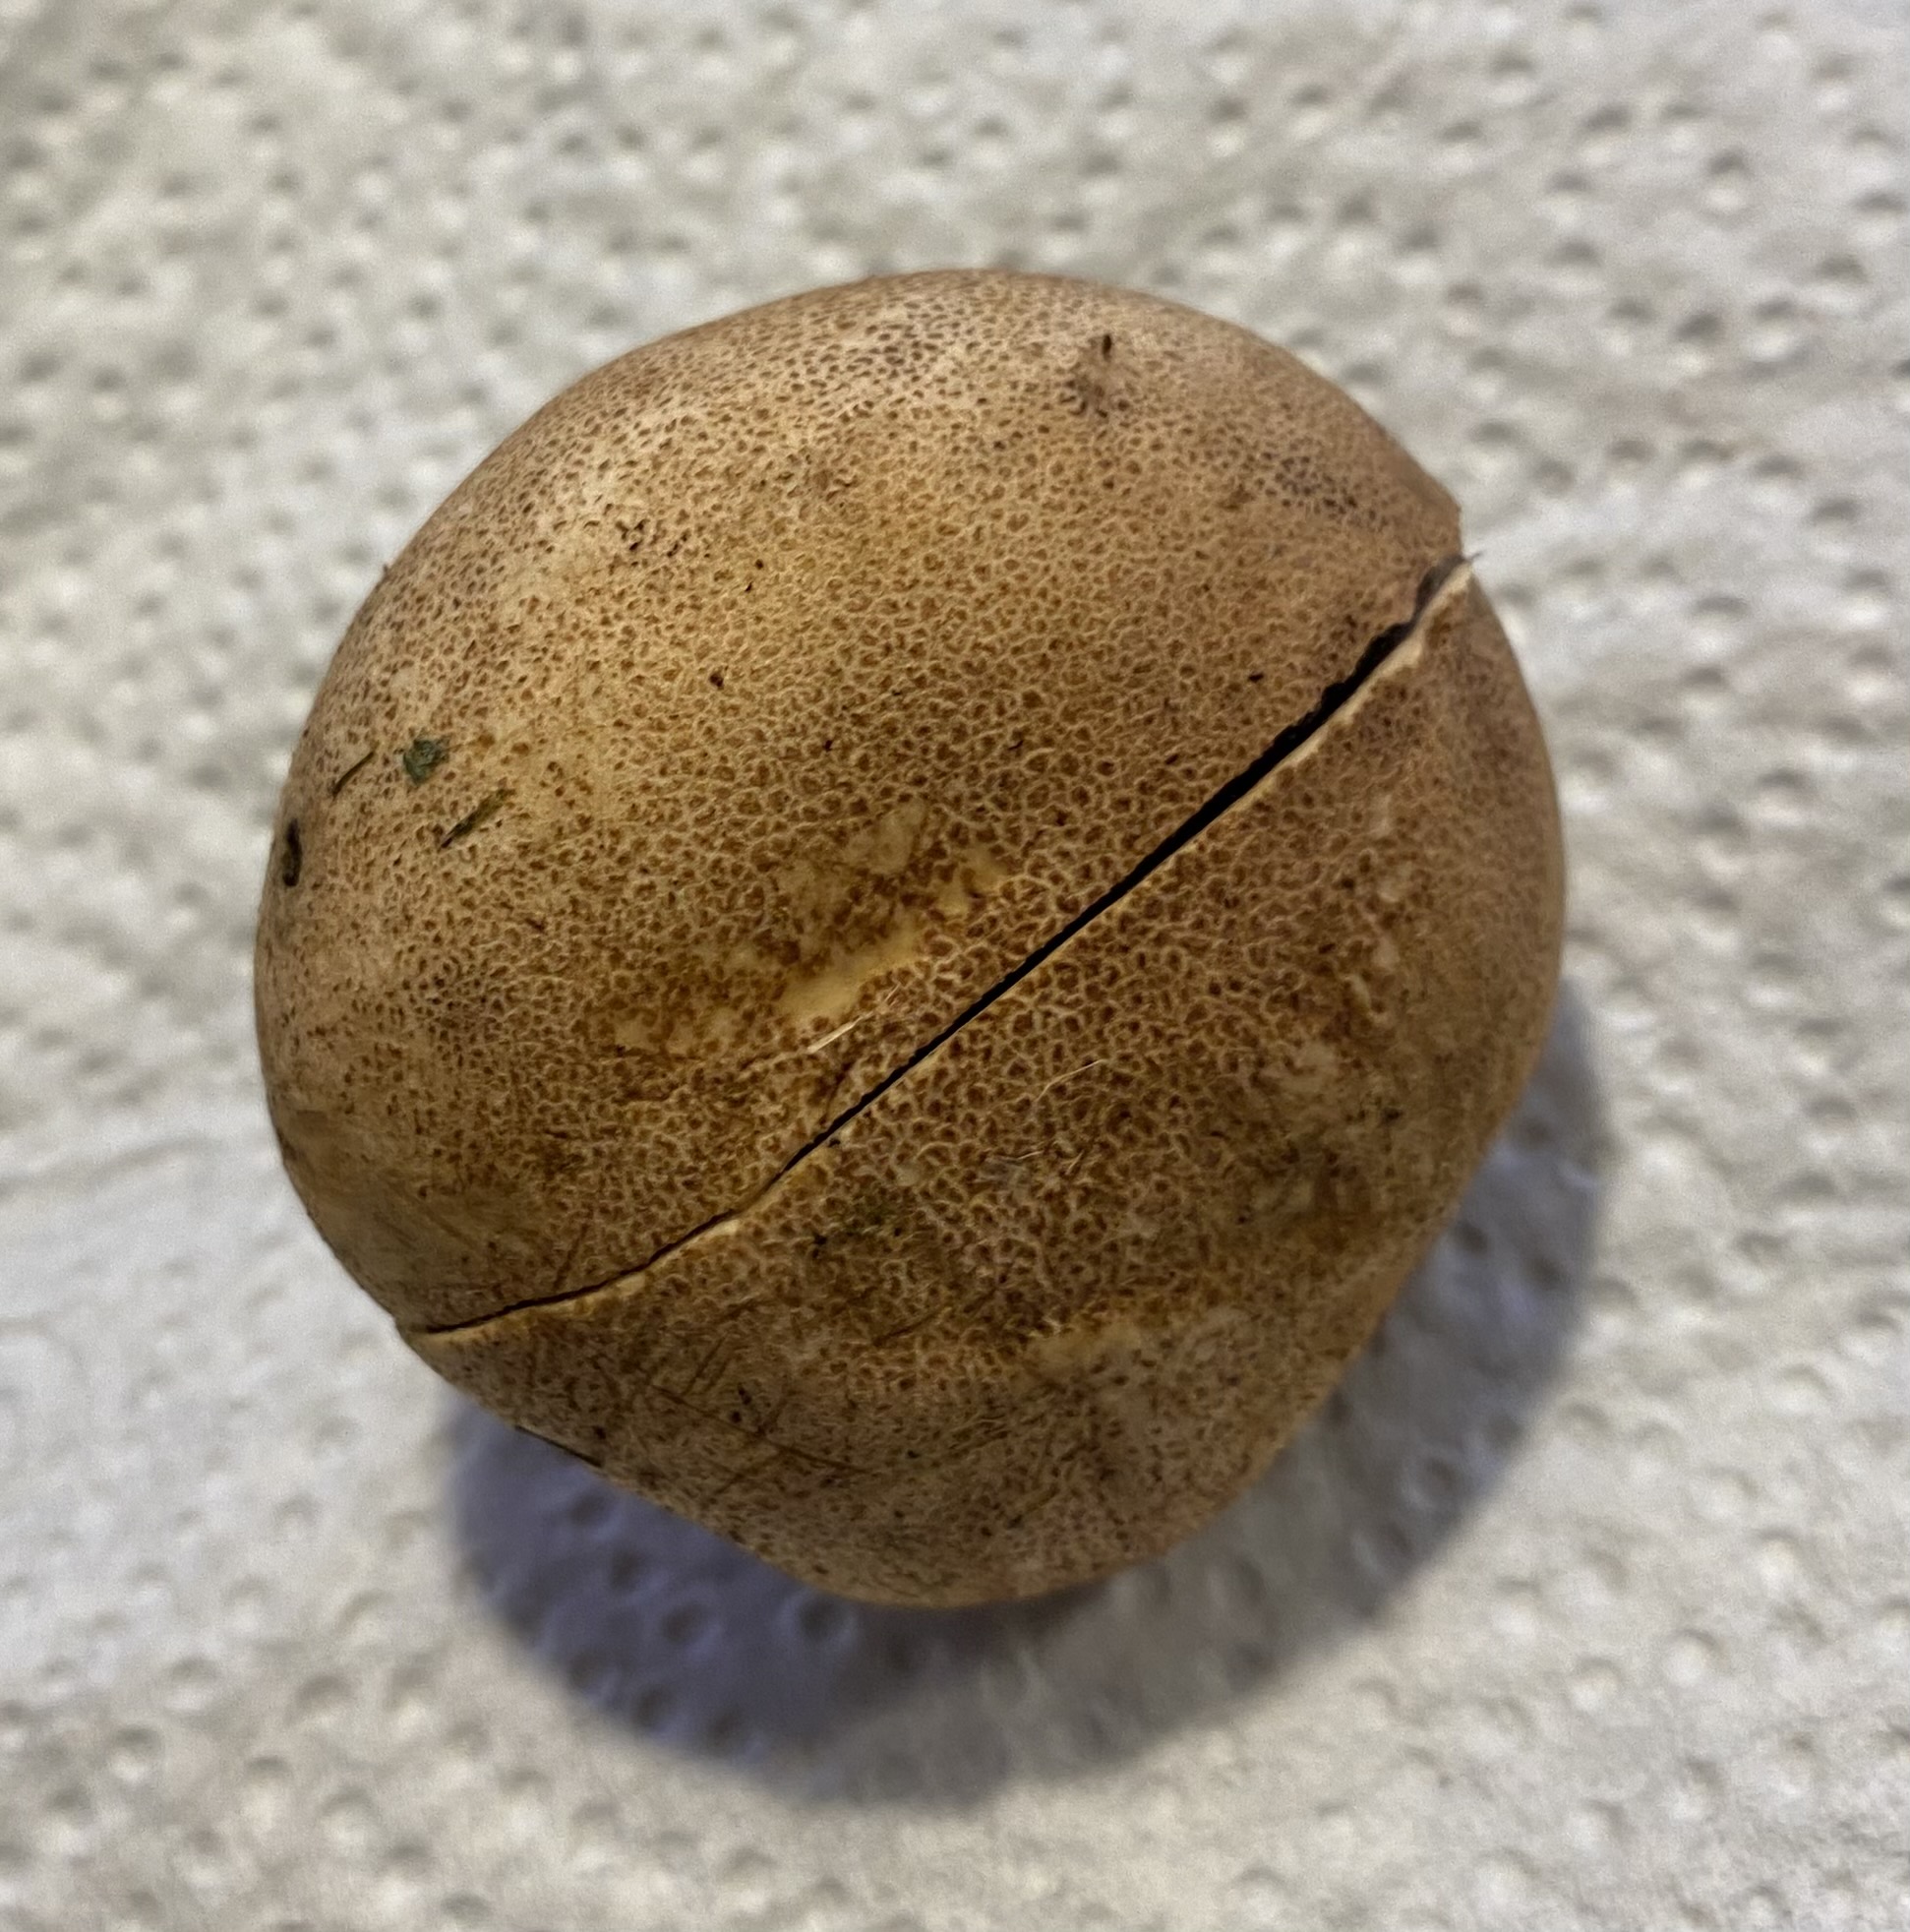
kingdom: Fungi
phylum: Basidiomycota
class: Agaricomycetes
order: Boletales
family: Sclerodermataceae
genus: Scleroderma
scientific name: Scleroderma areolatum
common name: plettet bruskbold
